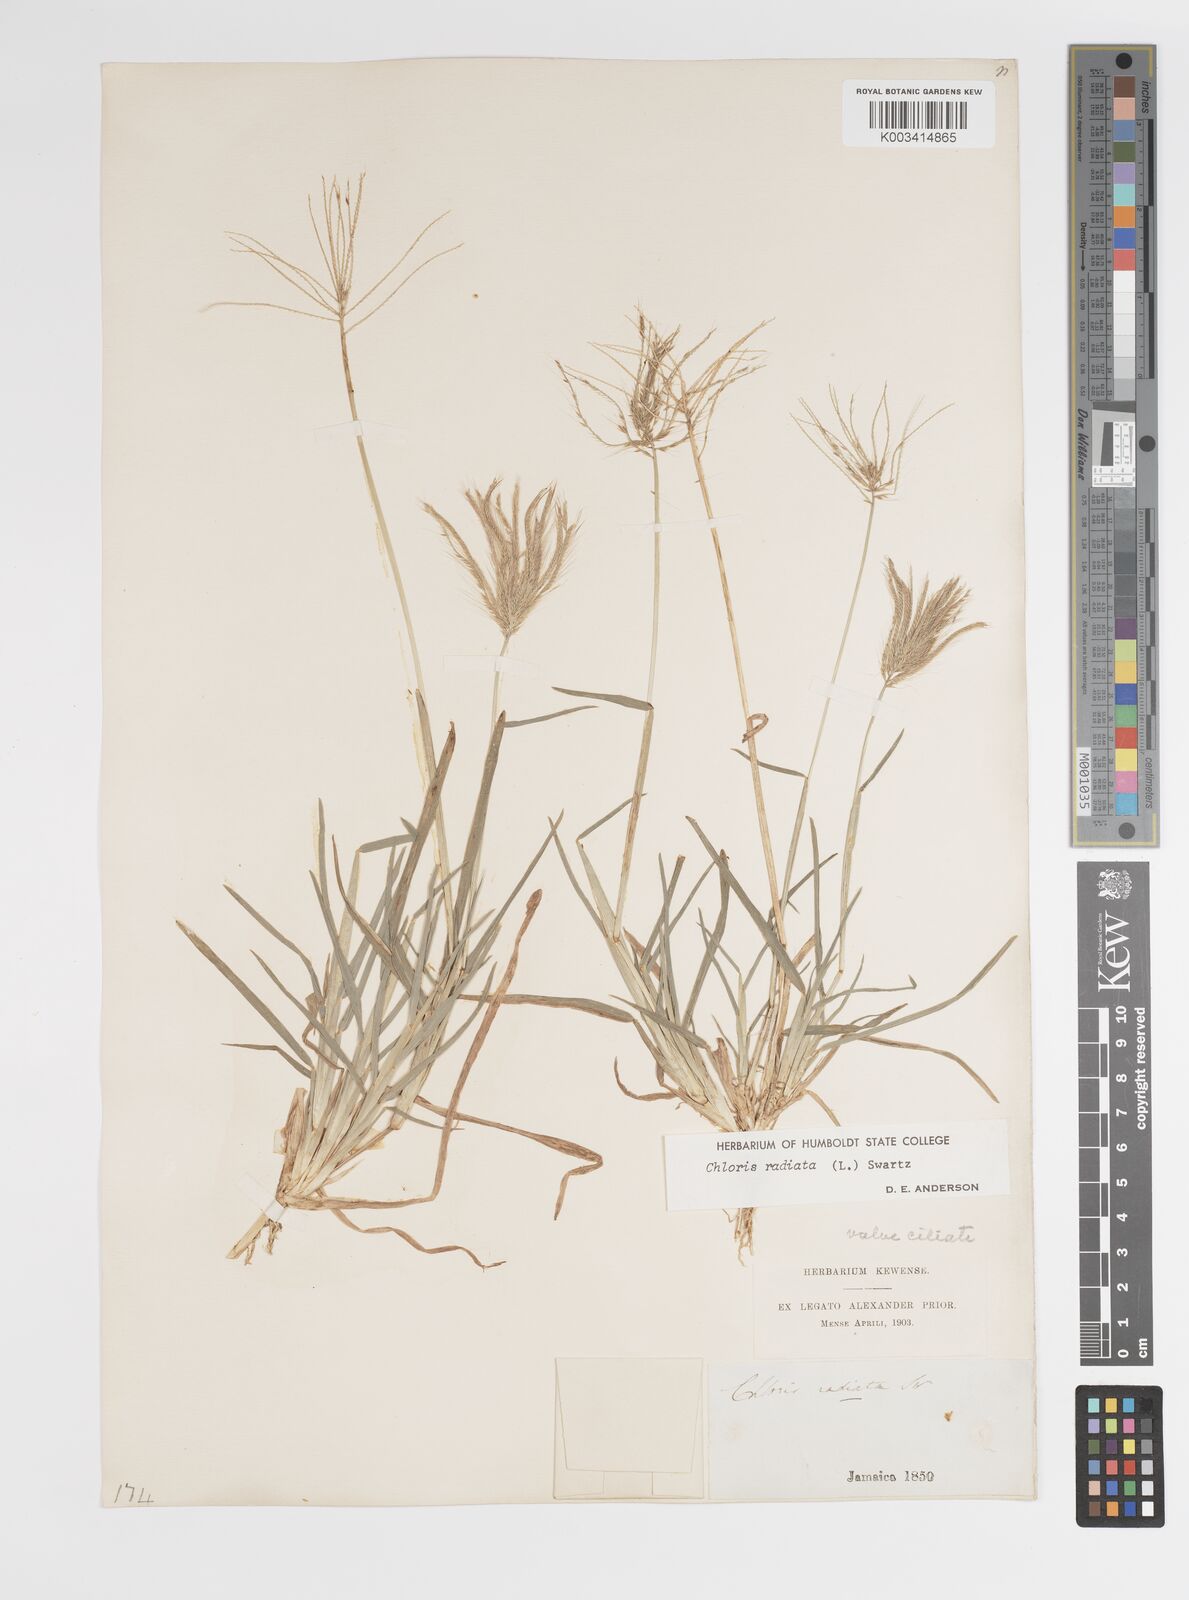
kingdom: Plantae
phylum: Tracheophyta
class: Liliopsida
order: Poales
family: Poaceae
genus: Chloris
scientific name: Chloris radiata
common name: Radiate fingergrass
